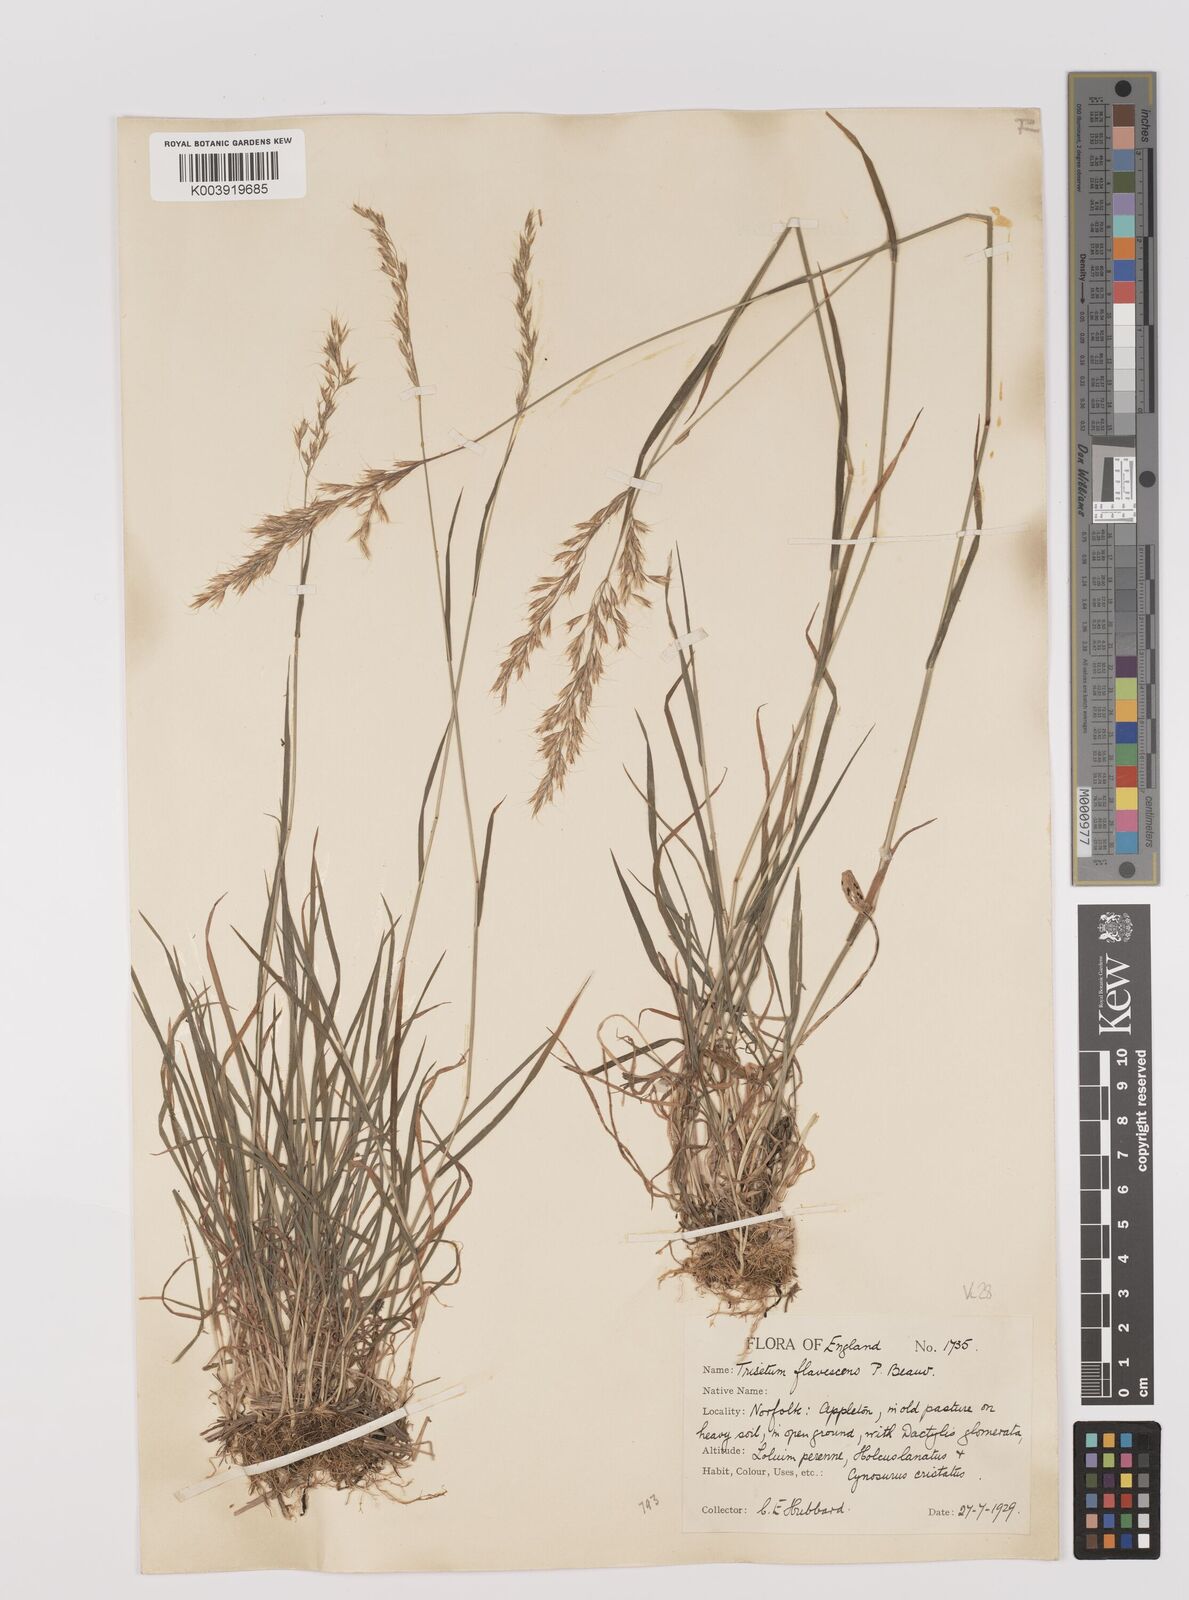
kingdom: Plantae
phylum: Tracheophyta
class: Liliopsida
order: Poales
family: Poaceae
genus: Trisetum
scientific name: Trisetum flavescens
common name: Yellow oat-grass
